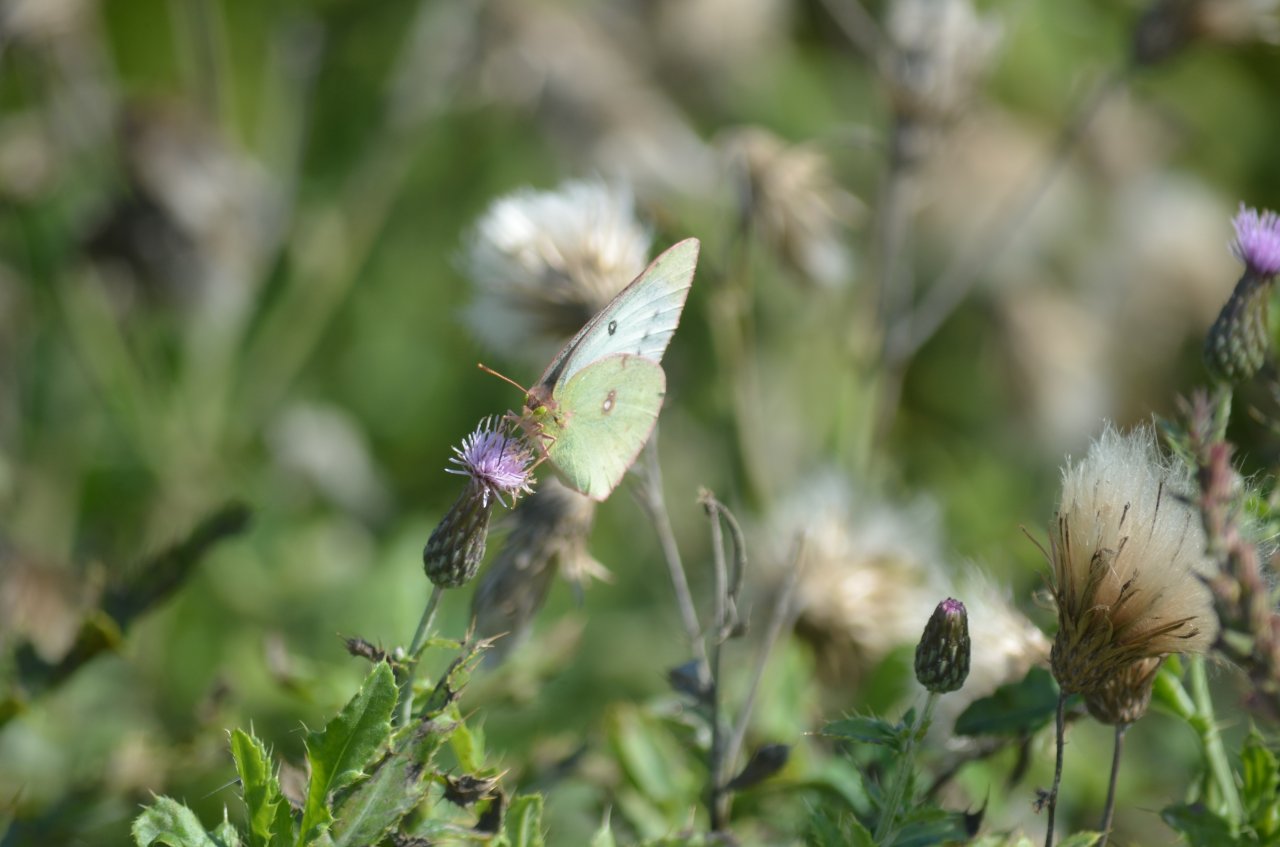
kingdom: Animalia
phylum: Arthropoda
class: Insecta
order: Lepidoptera
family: Pieridae
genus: Colias
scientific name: Colias philodice
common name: Clouded Sulphur
